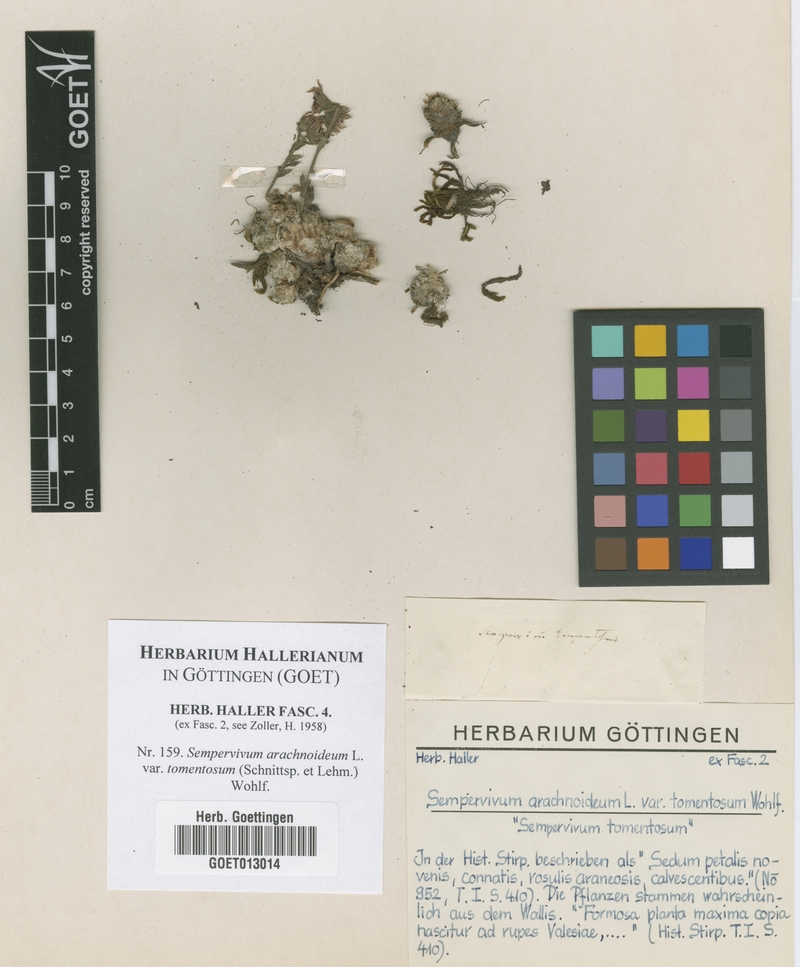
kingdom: Plantae
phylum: Tracheophyta
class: Magnoliopsida
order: Saxifragales
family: Crassulaceae
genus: Sempervivum
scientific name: Sempervivum arachnoideum
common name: Cobweb house-leek
